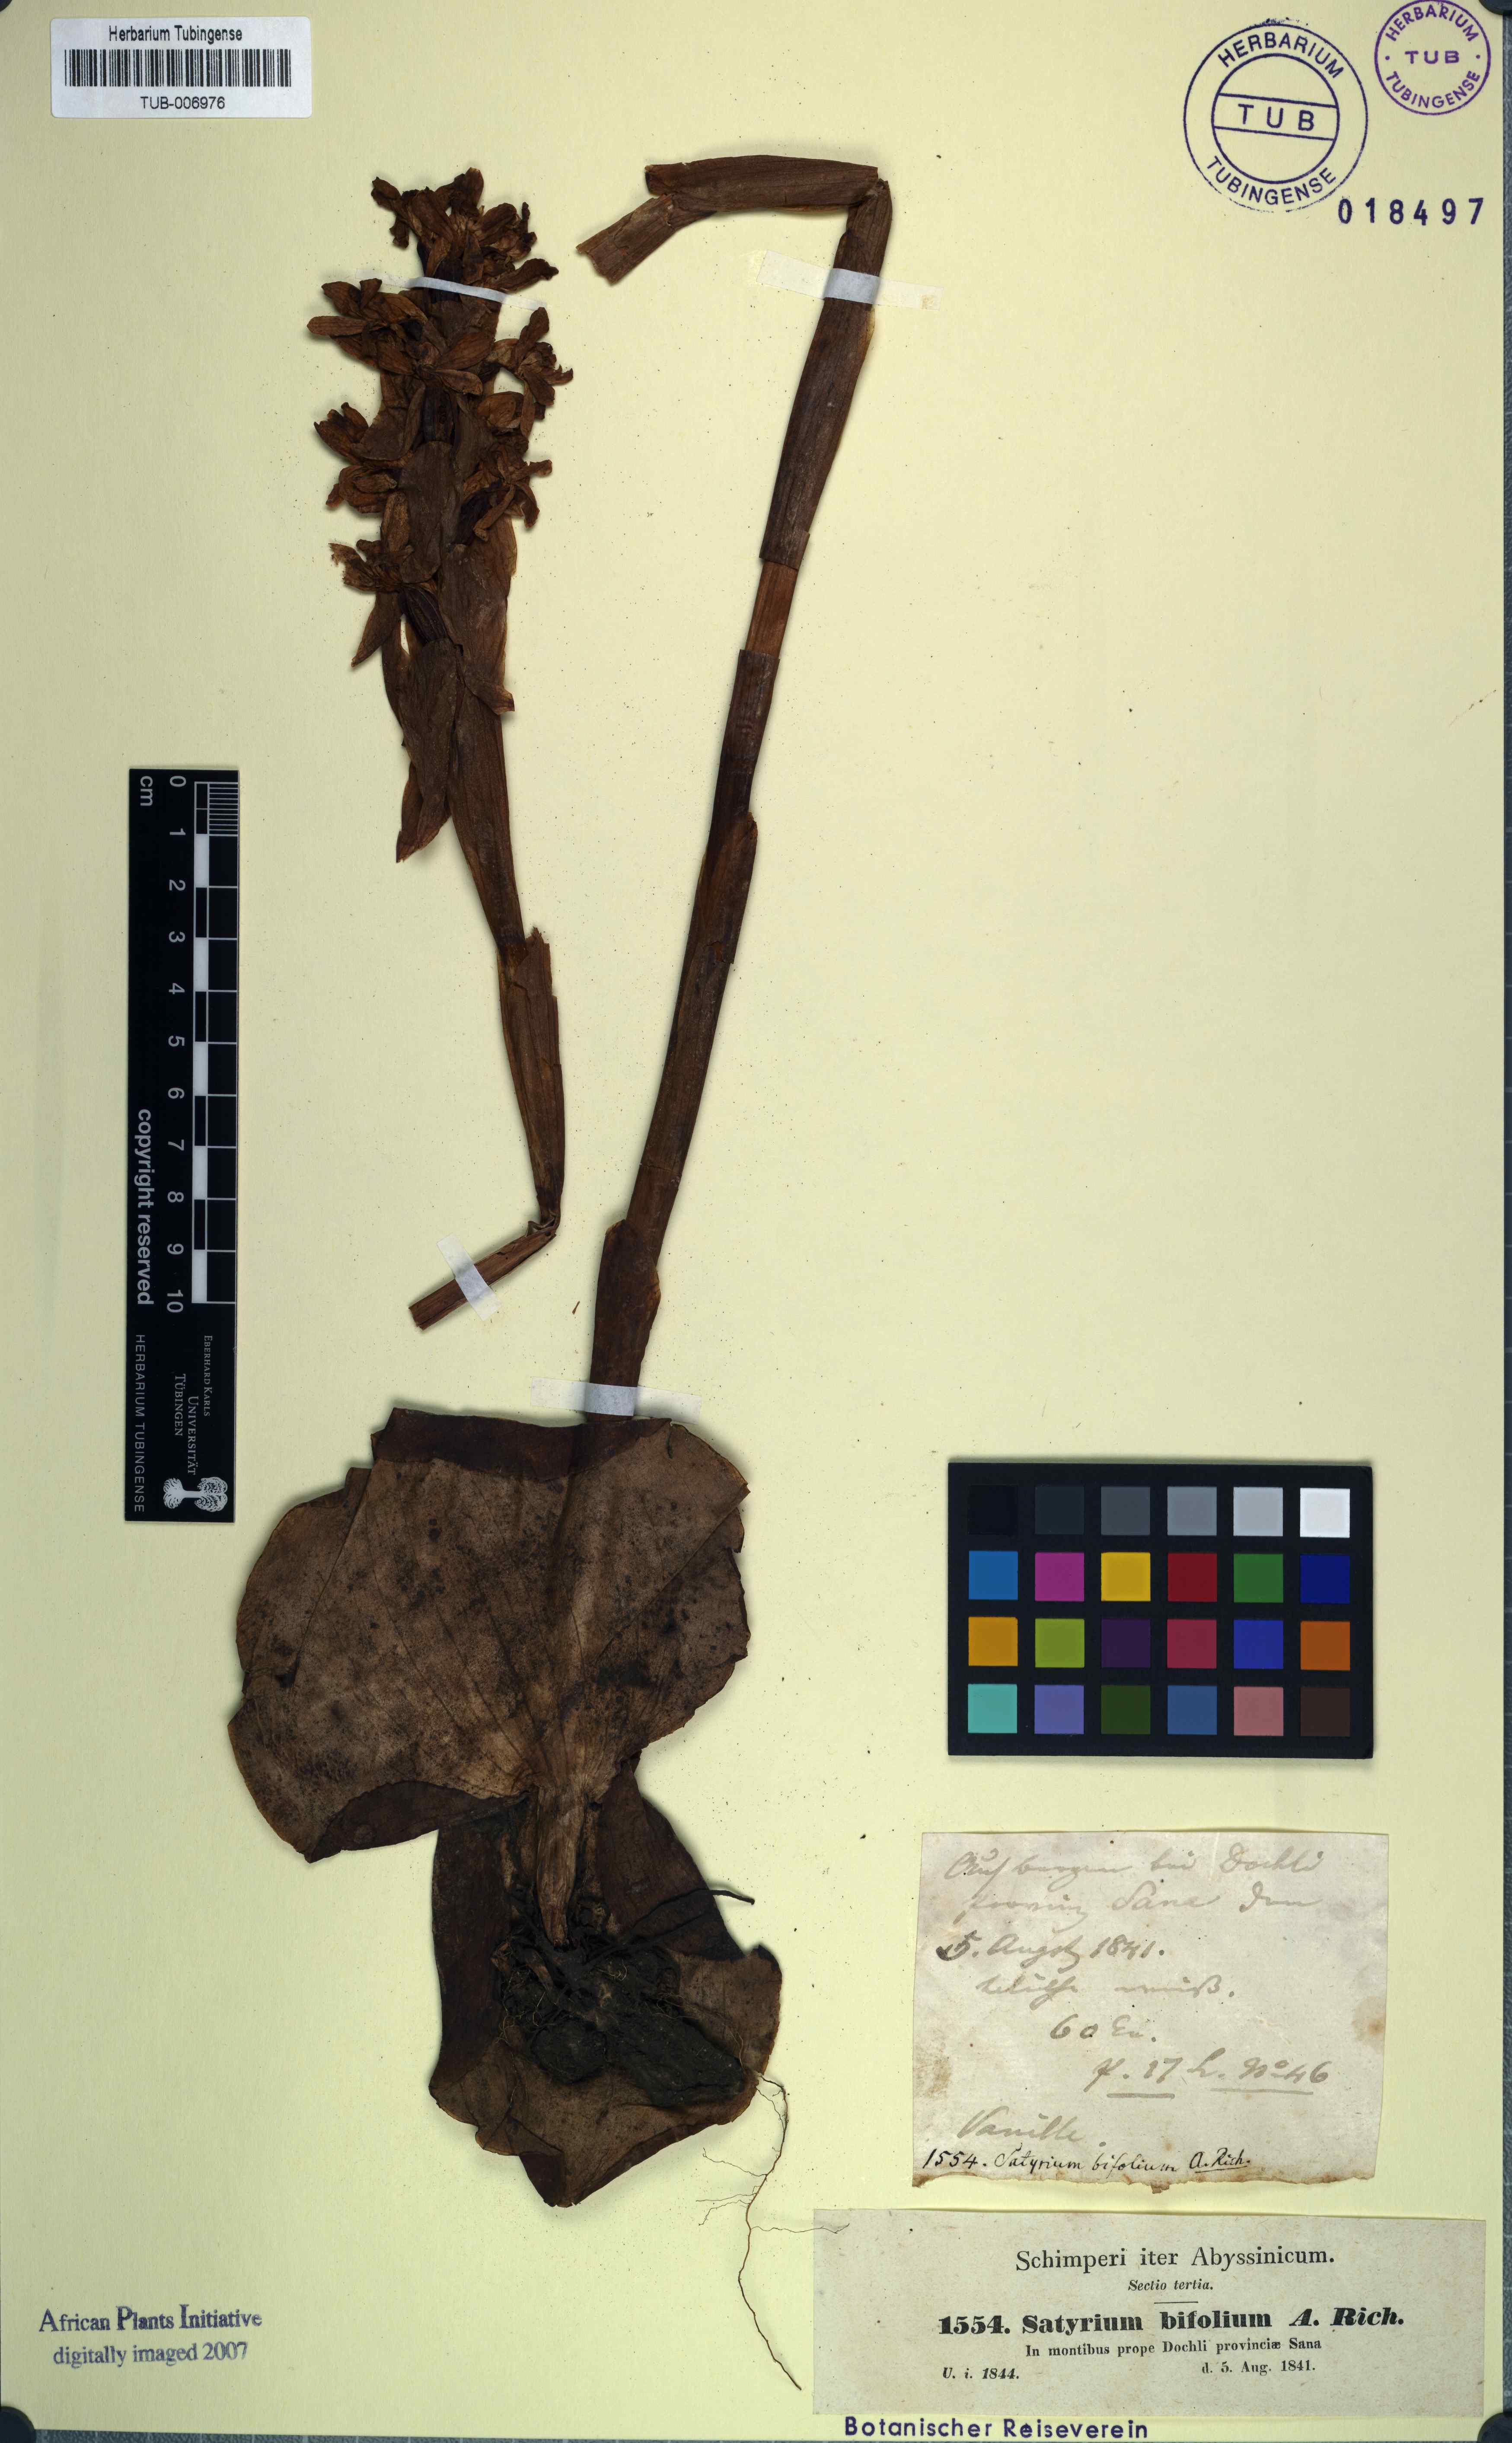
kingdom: Plantae
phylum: Tracheophyta
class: Liliopsida
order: Asparagales
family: Orchidaceae
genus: Satyrium
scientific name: Satyrium aethiopicum
